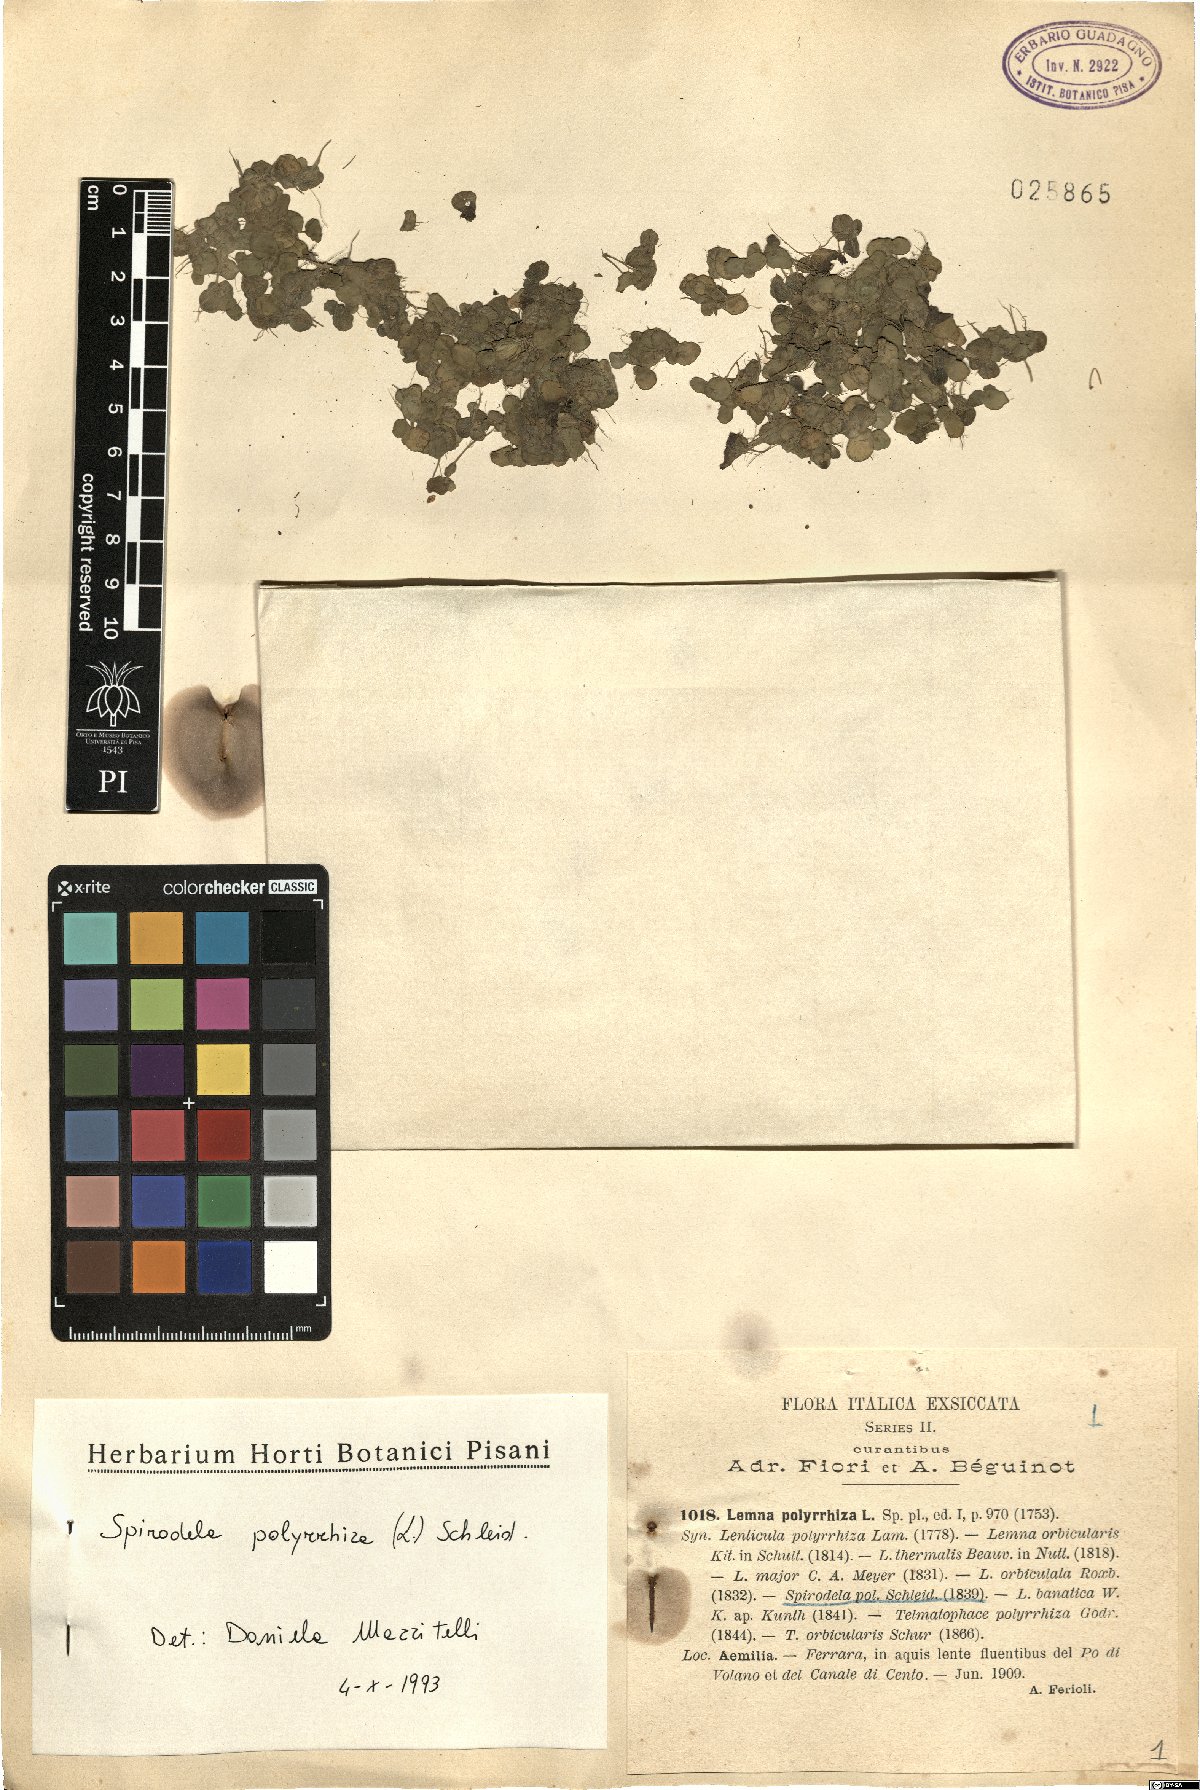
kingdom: Plantae
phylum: Tracheophyta
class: Liliopsida
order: Alismatales
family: Araceae
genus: Spirodela
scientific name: Spirodela polyrhiza
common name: Great duckweed
